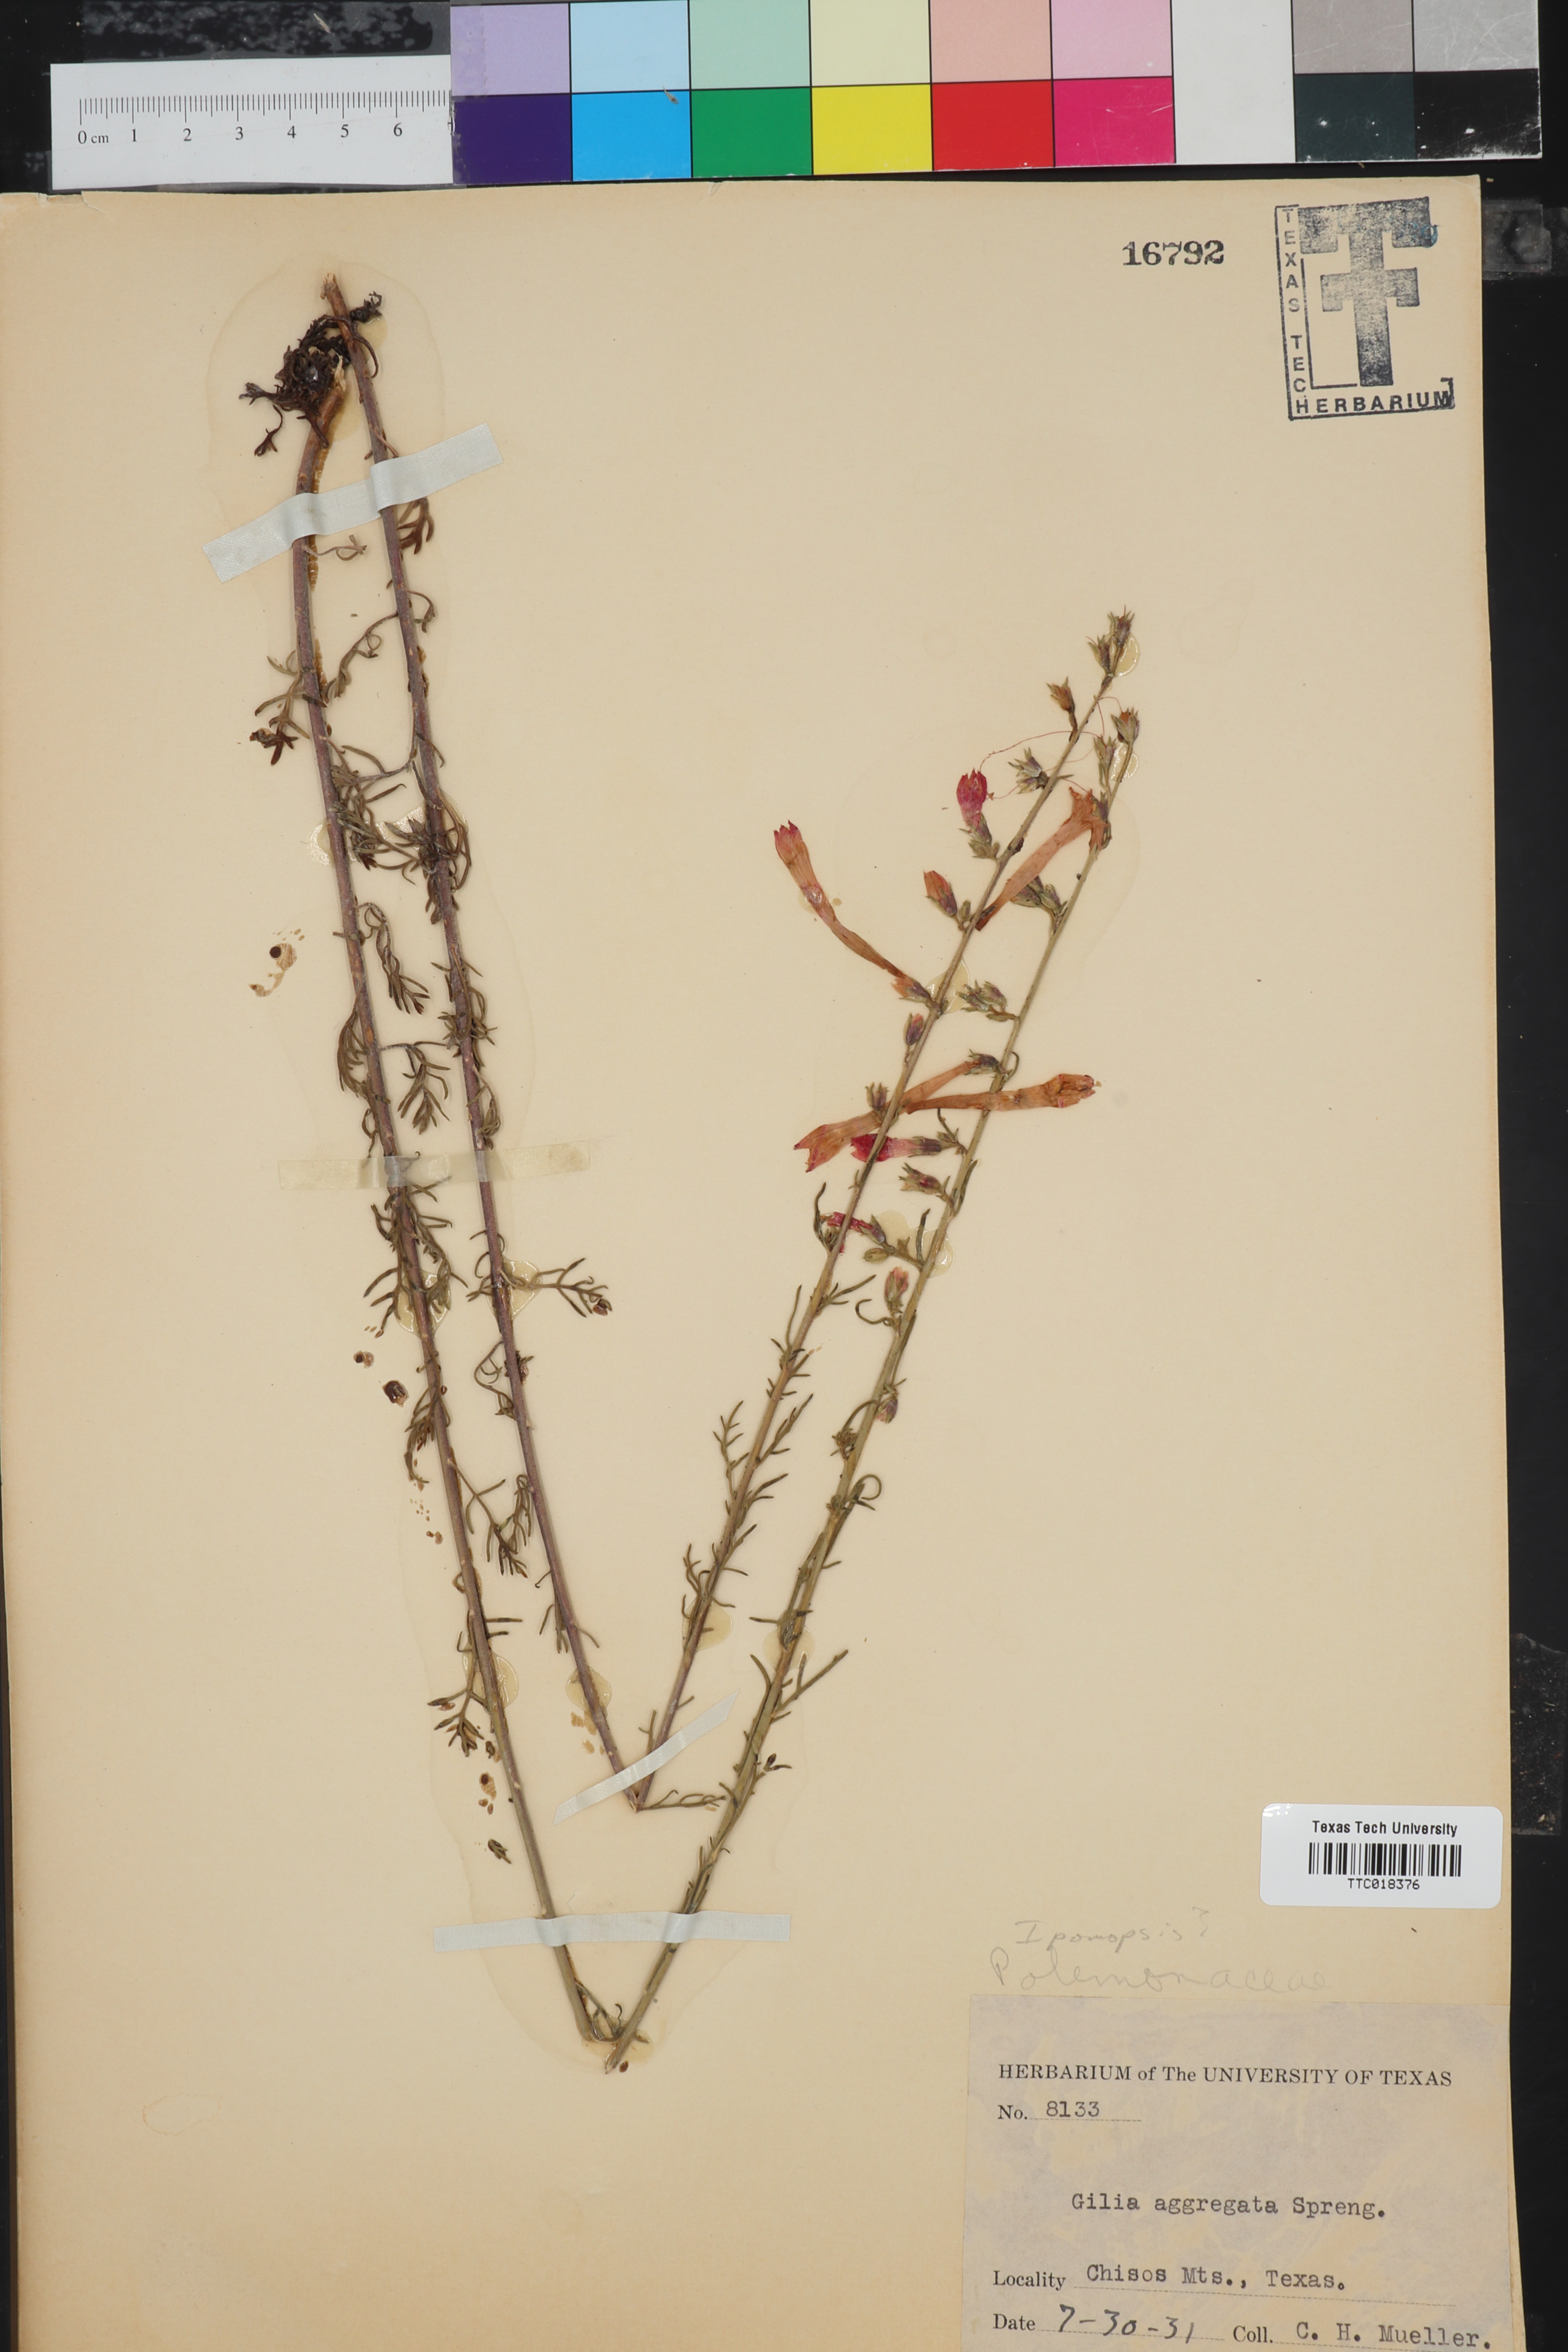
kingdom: Plantae
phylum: Tracheophyta
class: Magnoliopsida
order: Ericales
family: Polemoniaceae
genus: Ipomopsis
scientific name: Ipomopsis
